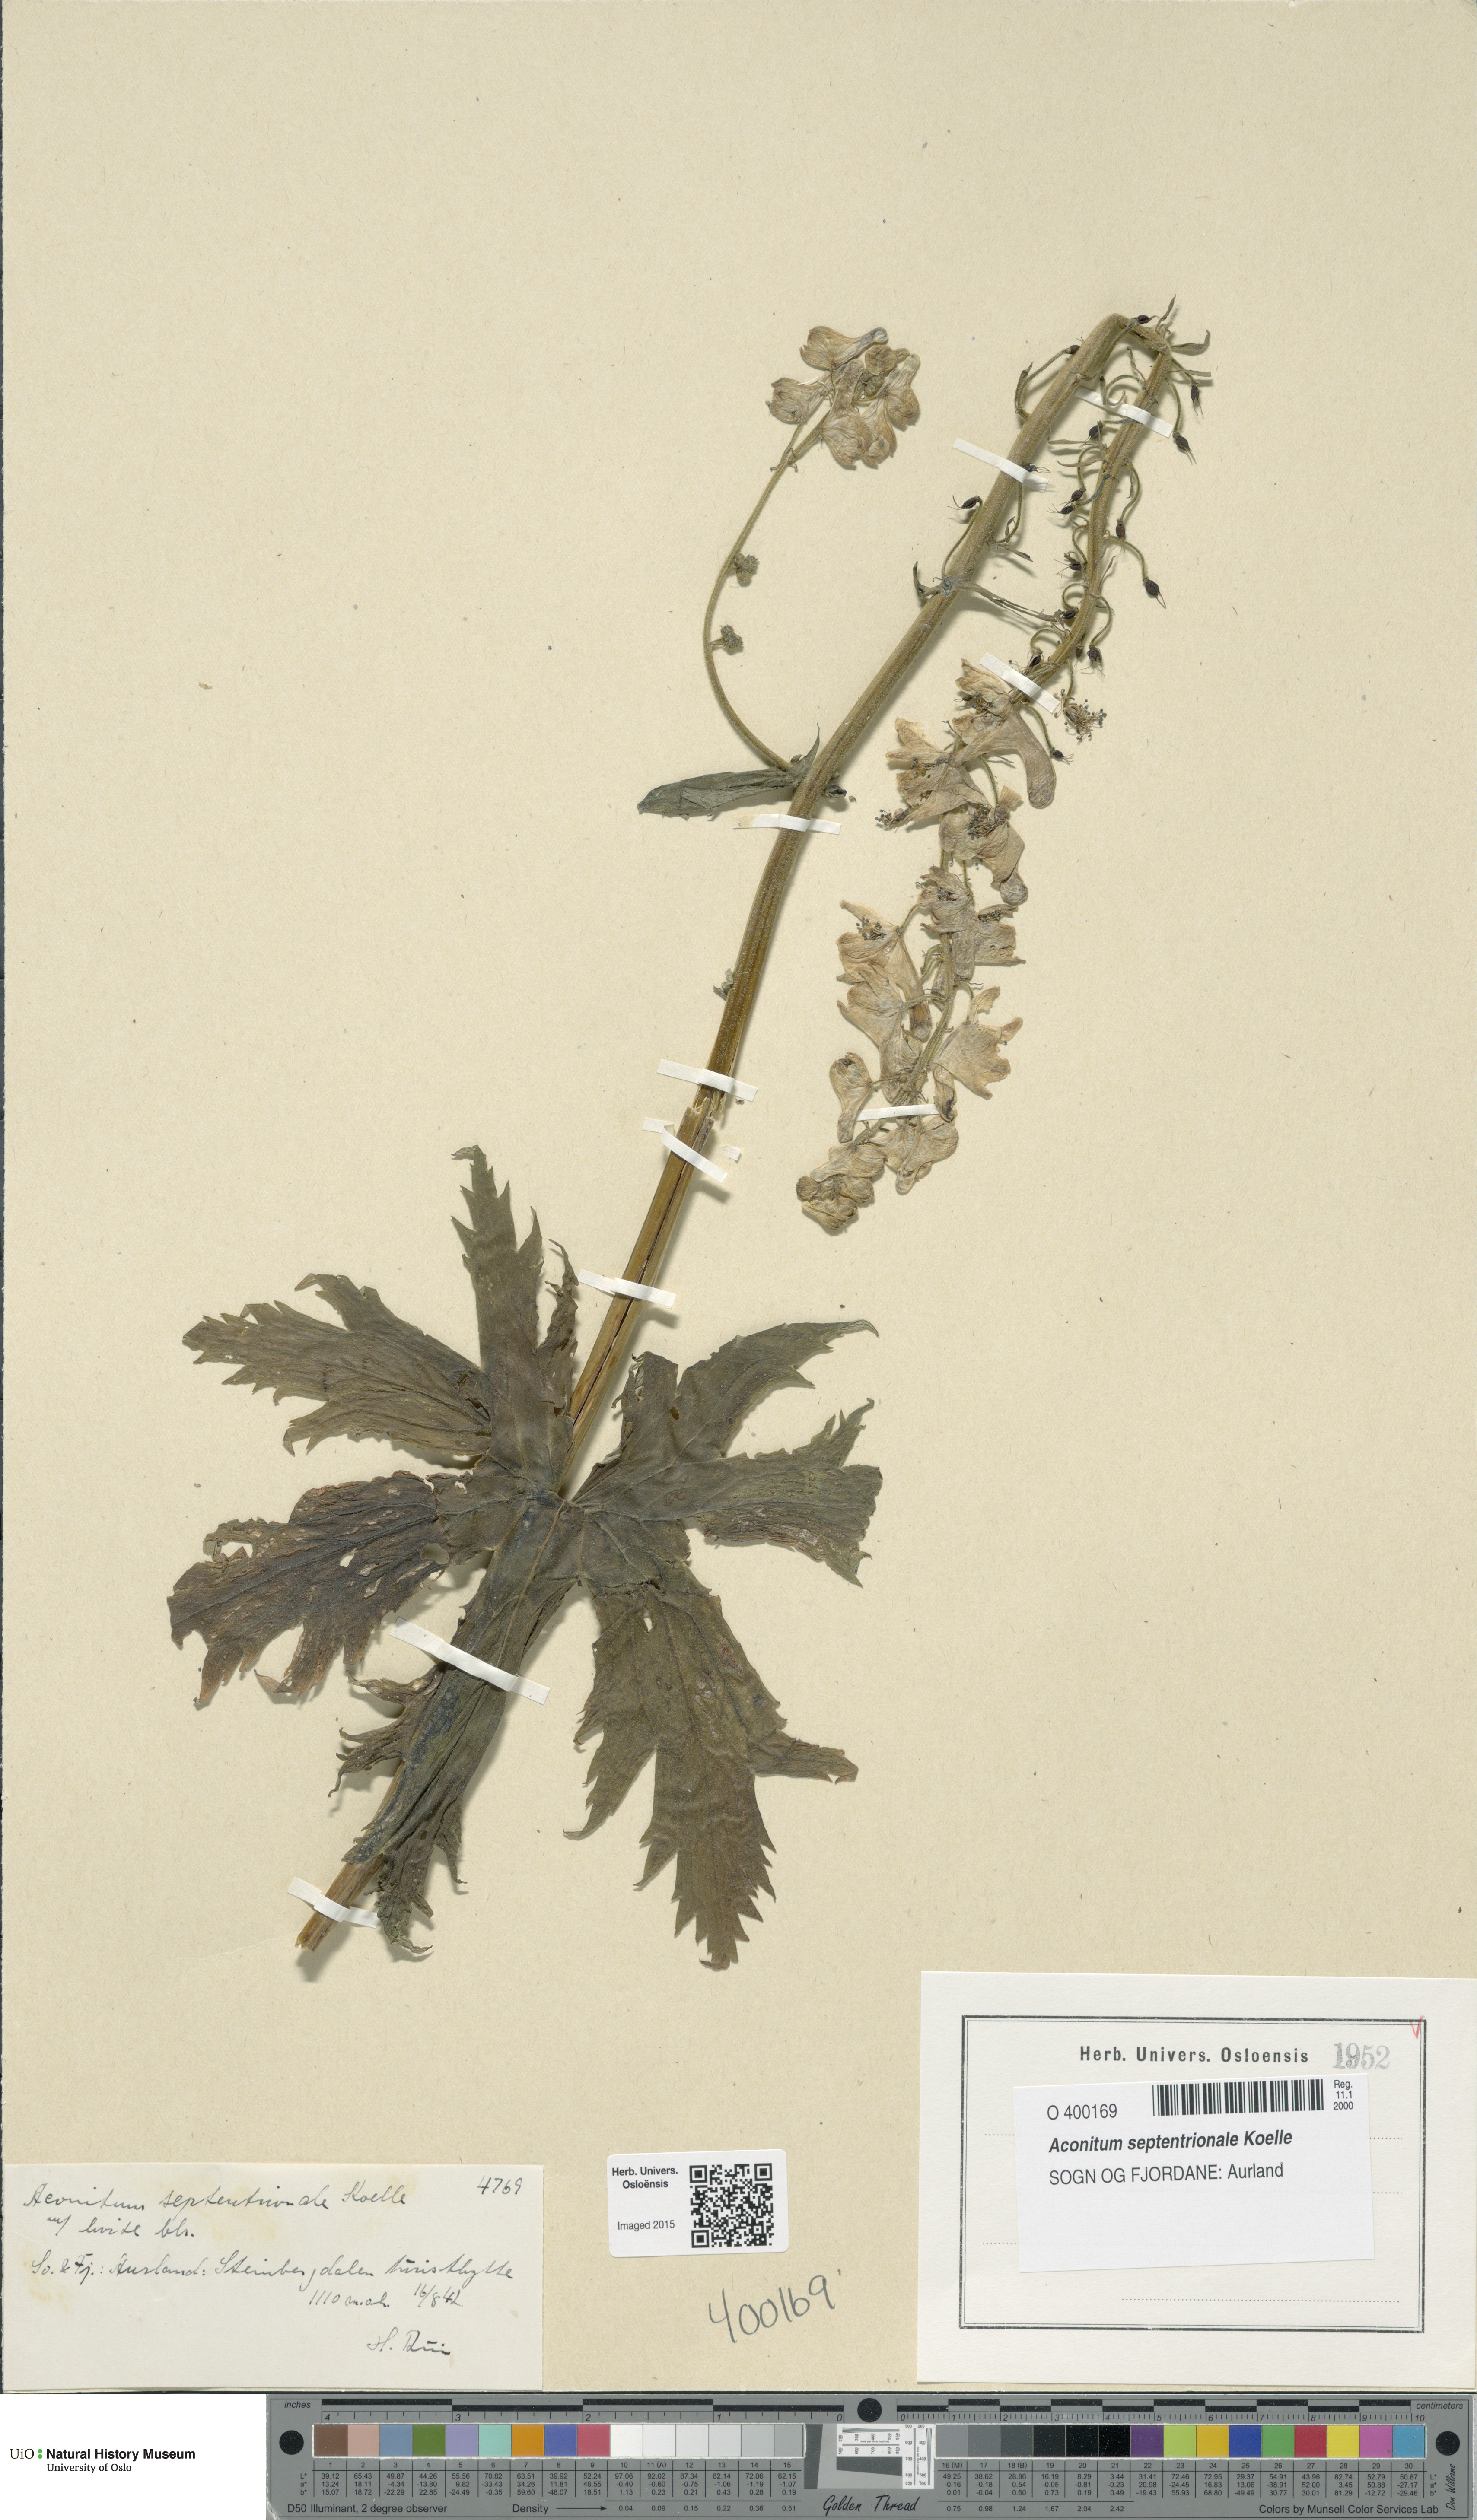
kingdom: Plantae
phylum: Tracheophyta
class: Magnoliopsida
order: Ranunculales
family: Ranunculaceae
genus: Aconitum
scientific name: Aconitum septentrionale
